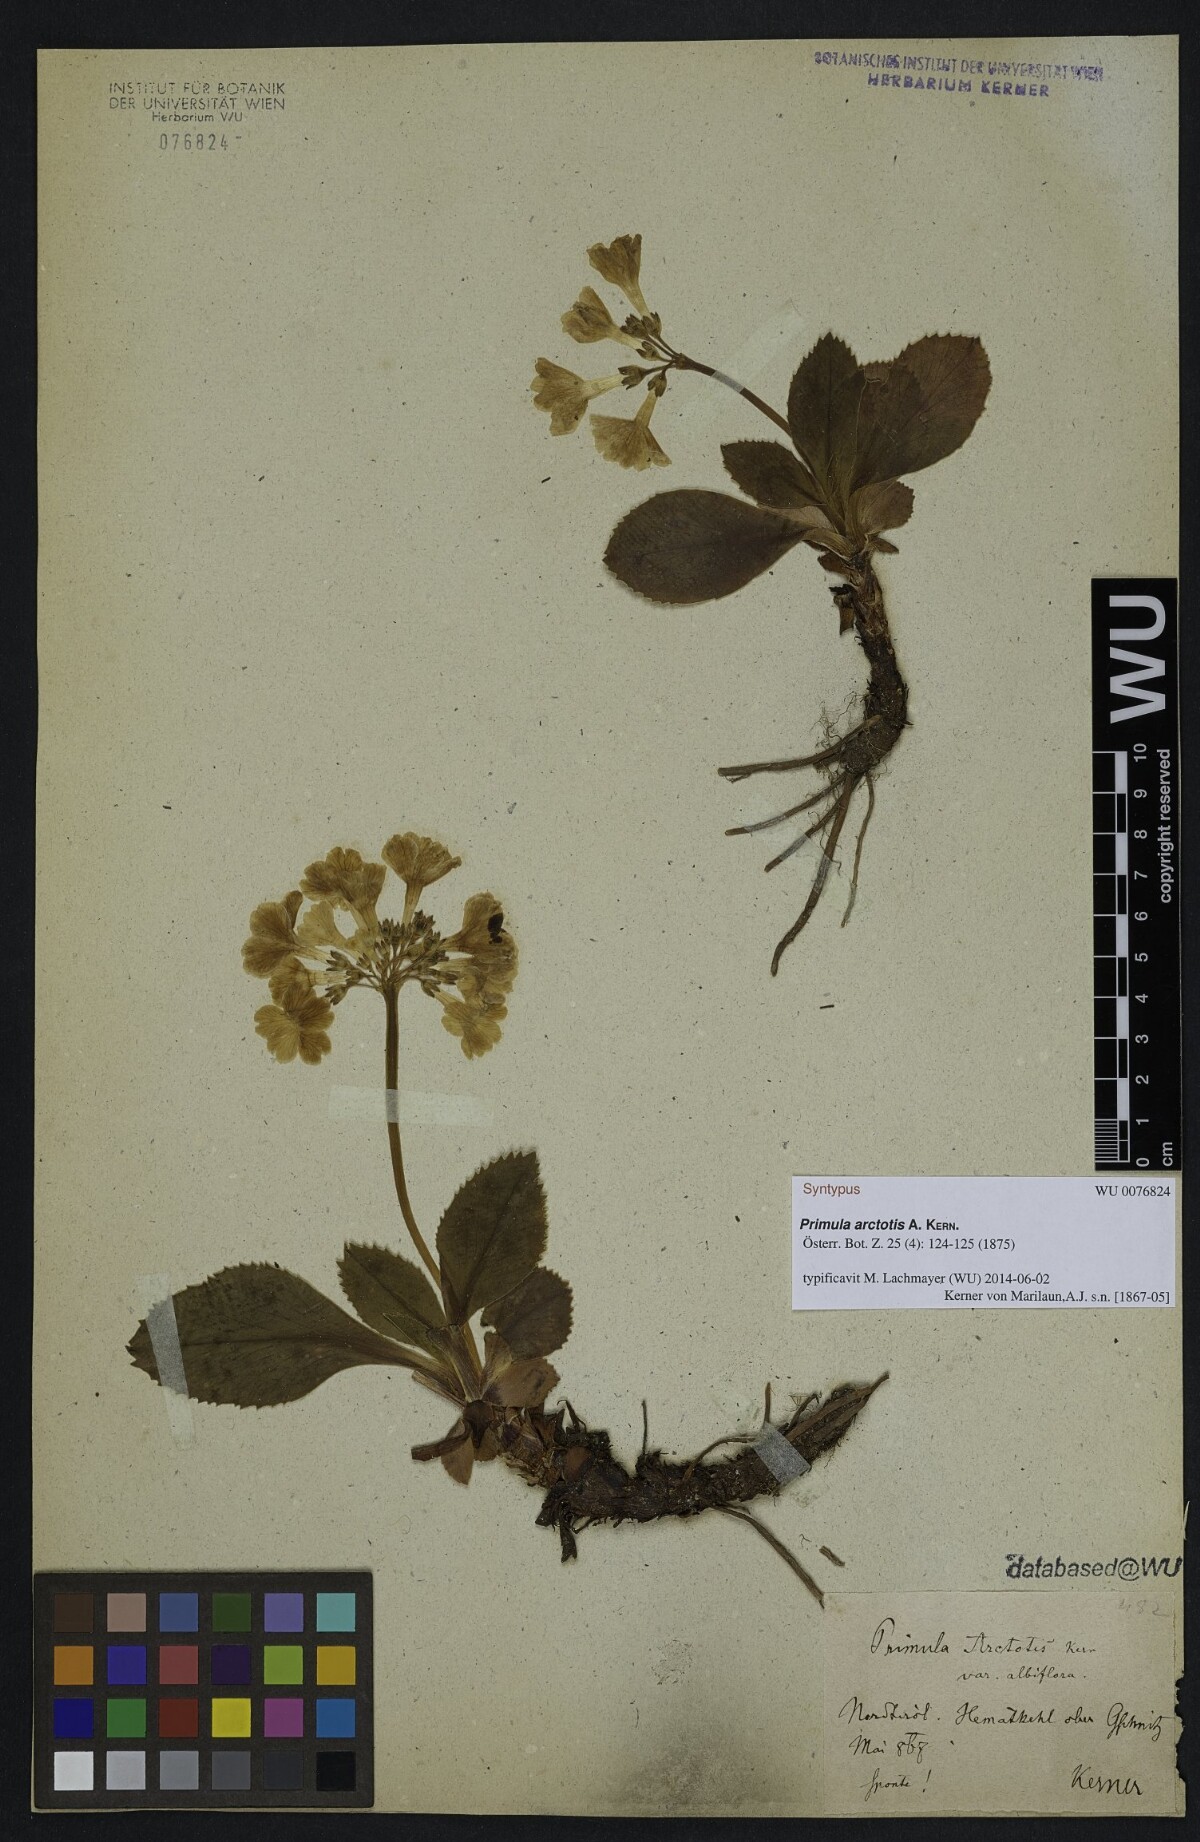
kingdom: Plantae
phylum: Tracheophyta
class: Magnoliopsida
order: Ericales
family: Primulaceae
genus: Primula
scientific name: Primula arctotis
